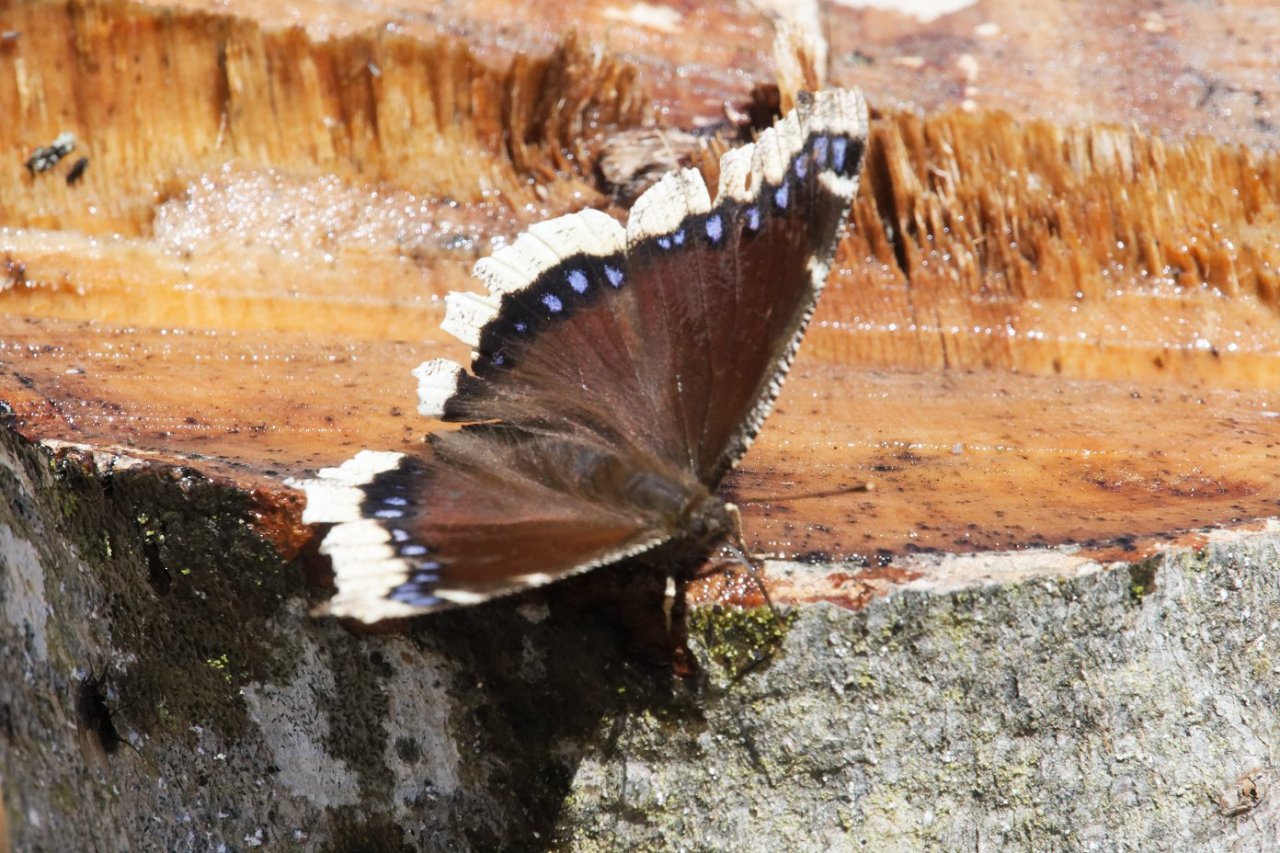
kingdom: Animalia
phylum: Arthropoda
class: Insecta
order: Lepidoptera
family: Nymphalidae
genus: Nymphalis
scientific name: Nymphalis antiopa
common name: Mourning Cloak
